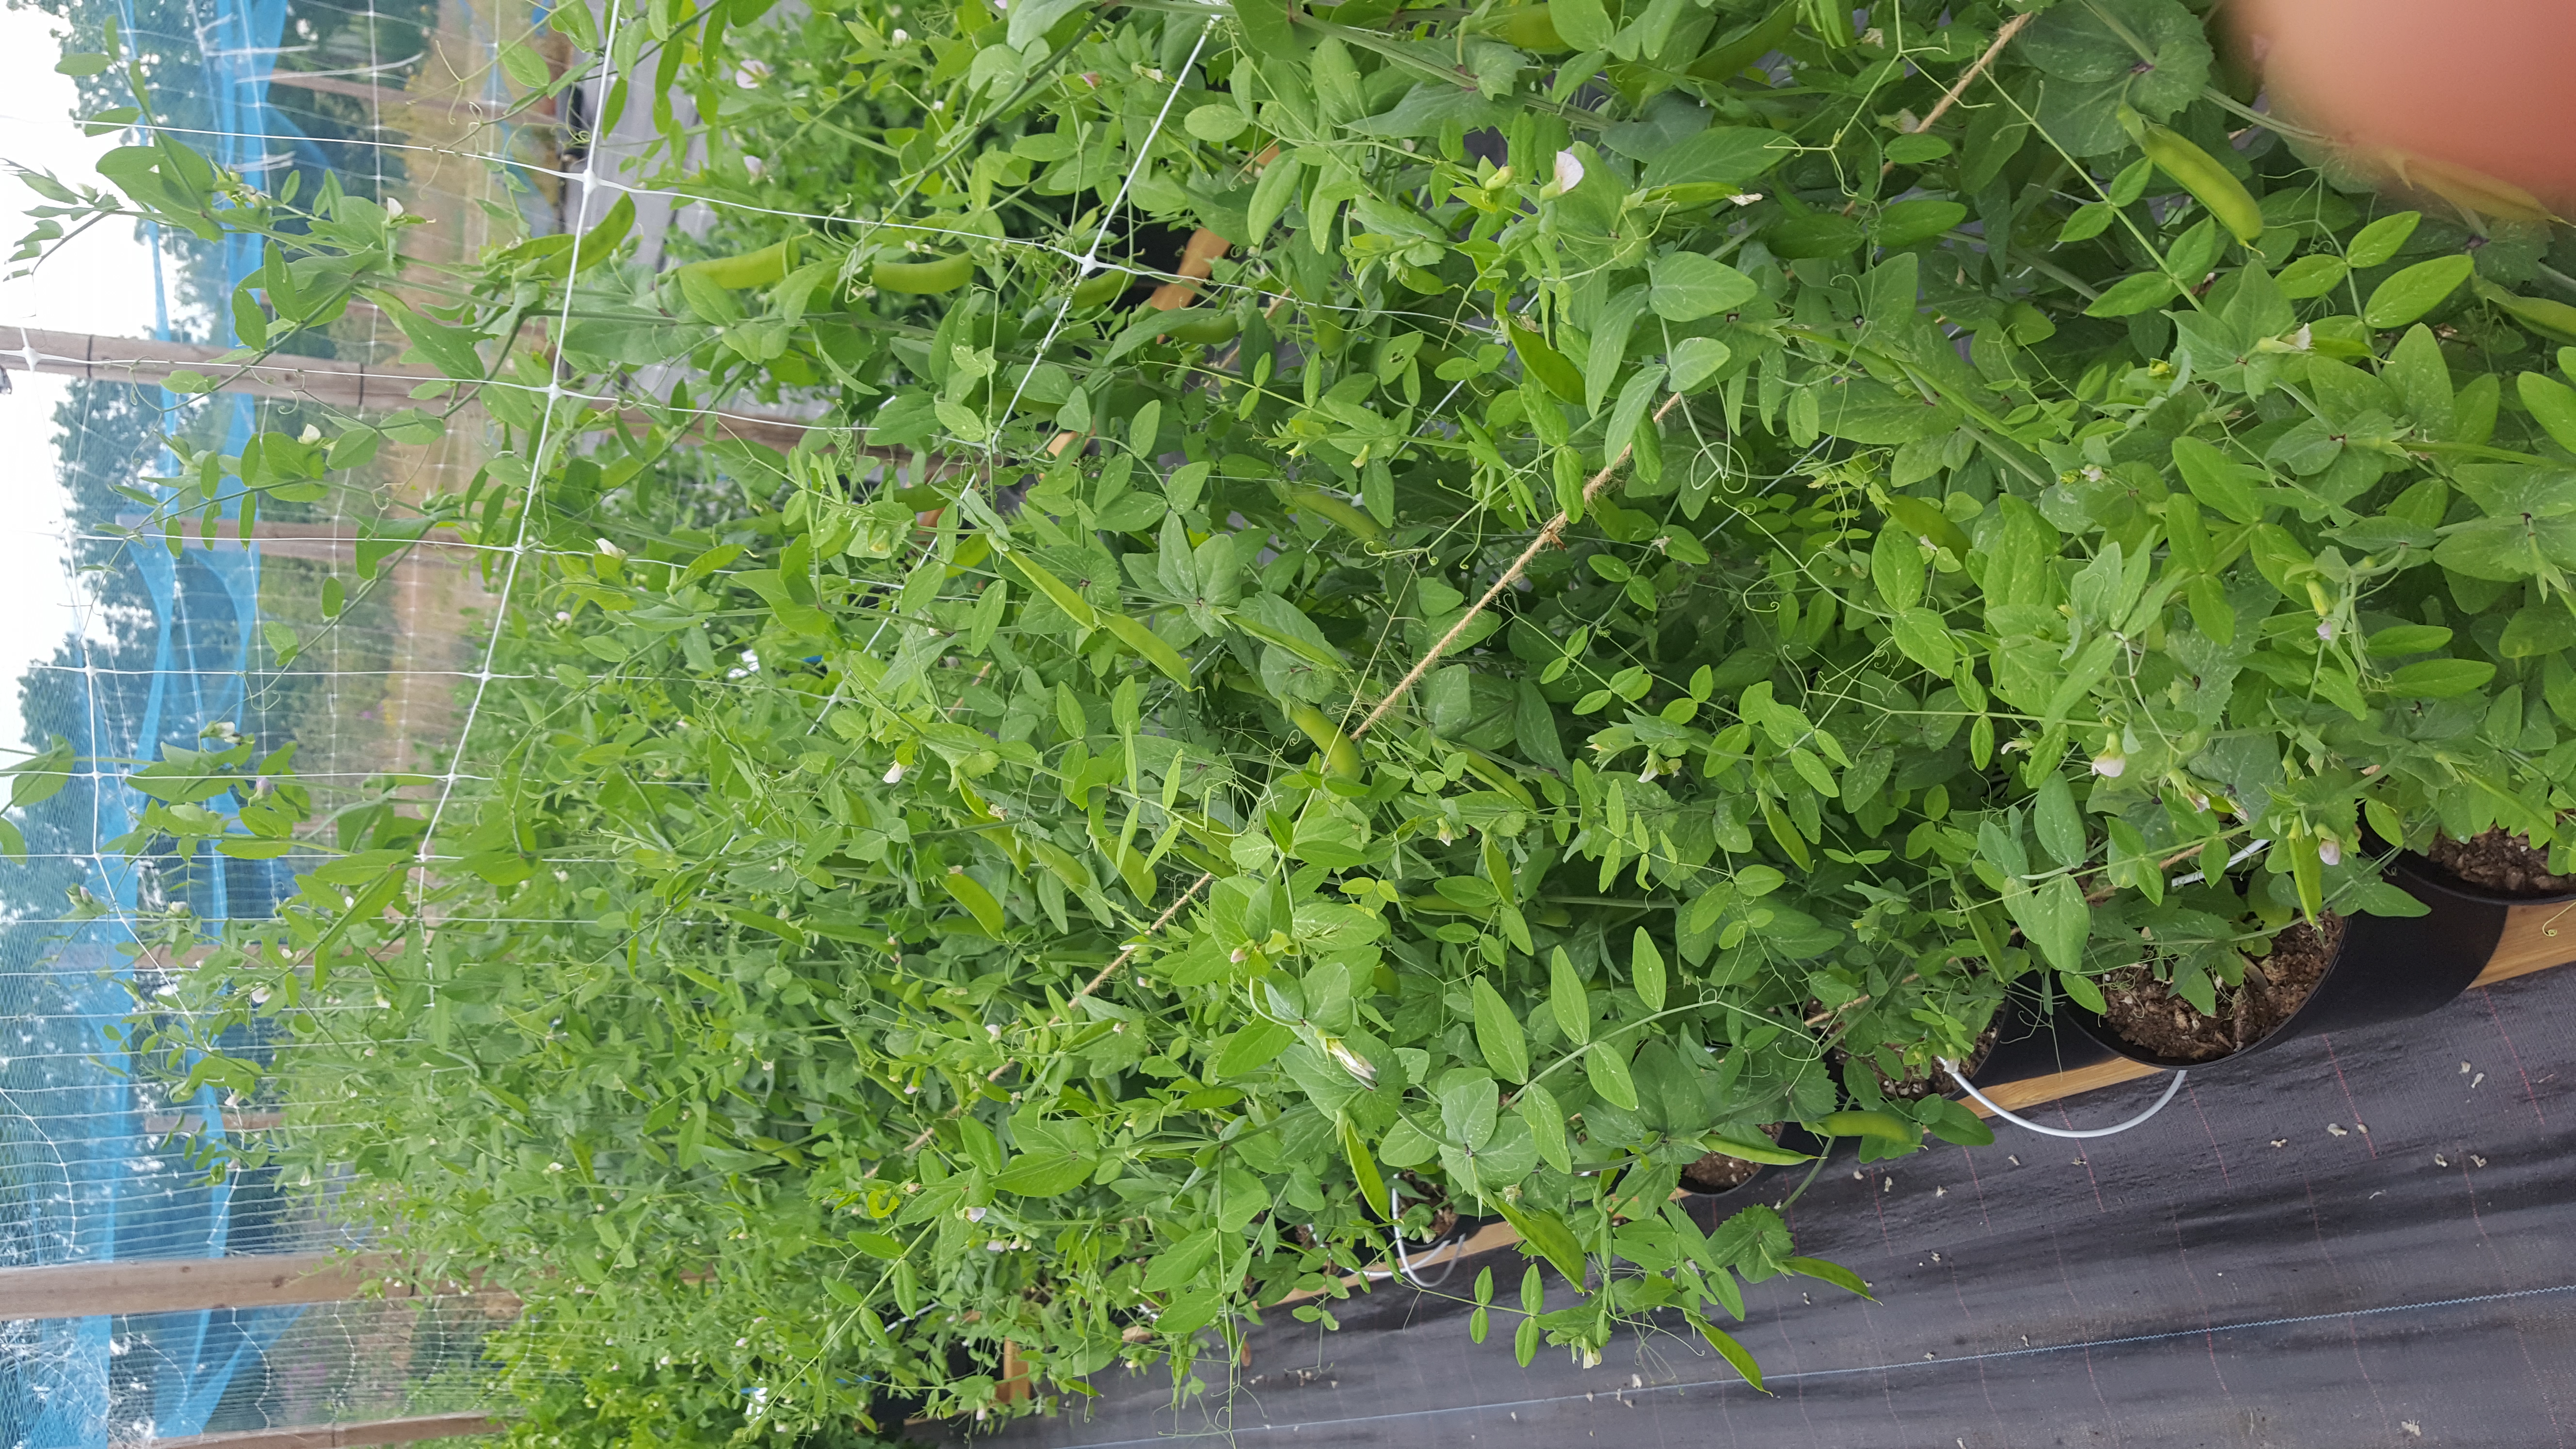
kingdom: Plantae
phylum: Tracheophyta
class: Magnoliopsida
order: Fabales
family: Fabaceae
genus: Lathyrus
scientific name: Lathyrus oleraceus
